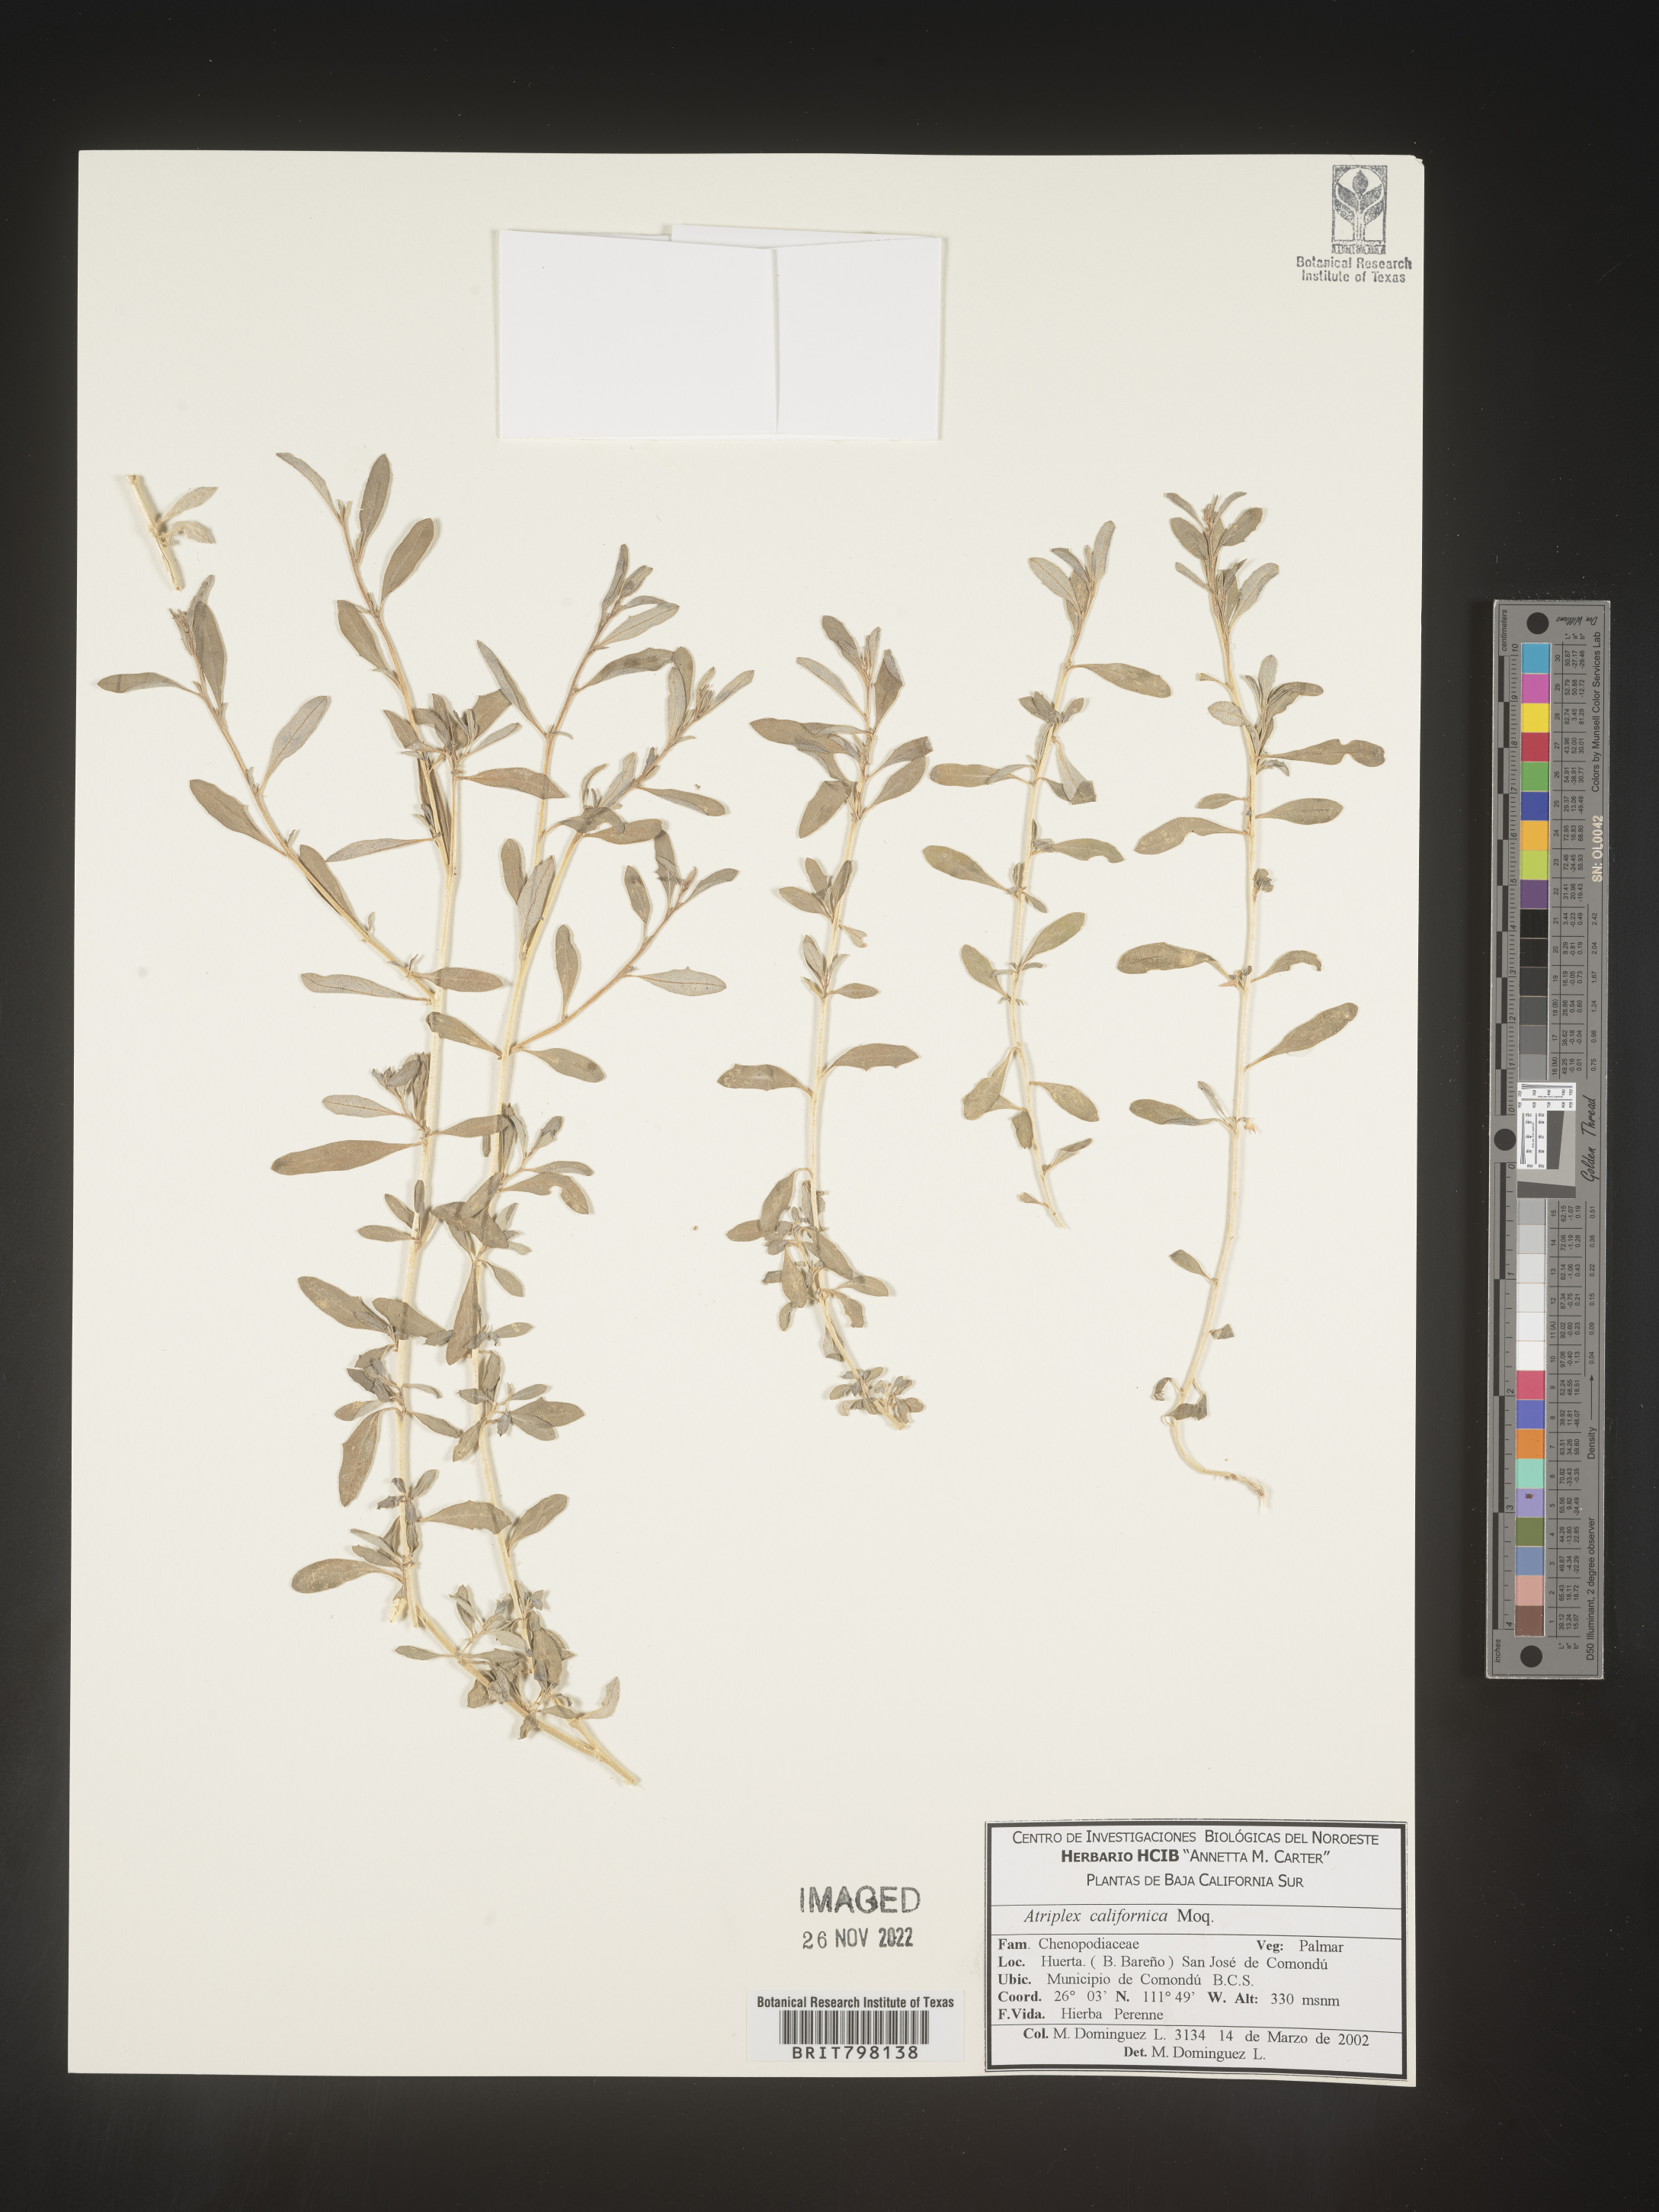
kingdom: Plantae
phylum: Tracheophyta
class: Magnoliopsida
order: Caryophyllales
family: Amaranthaceae
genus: Atriplex
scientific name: Atriplex
